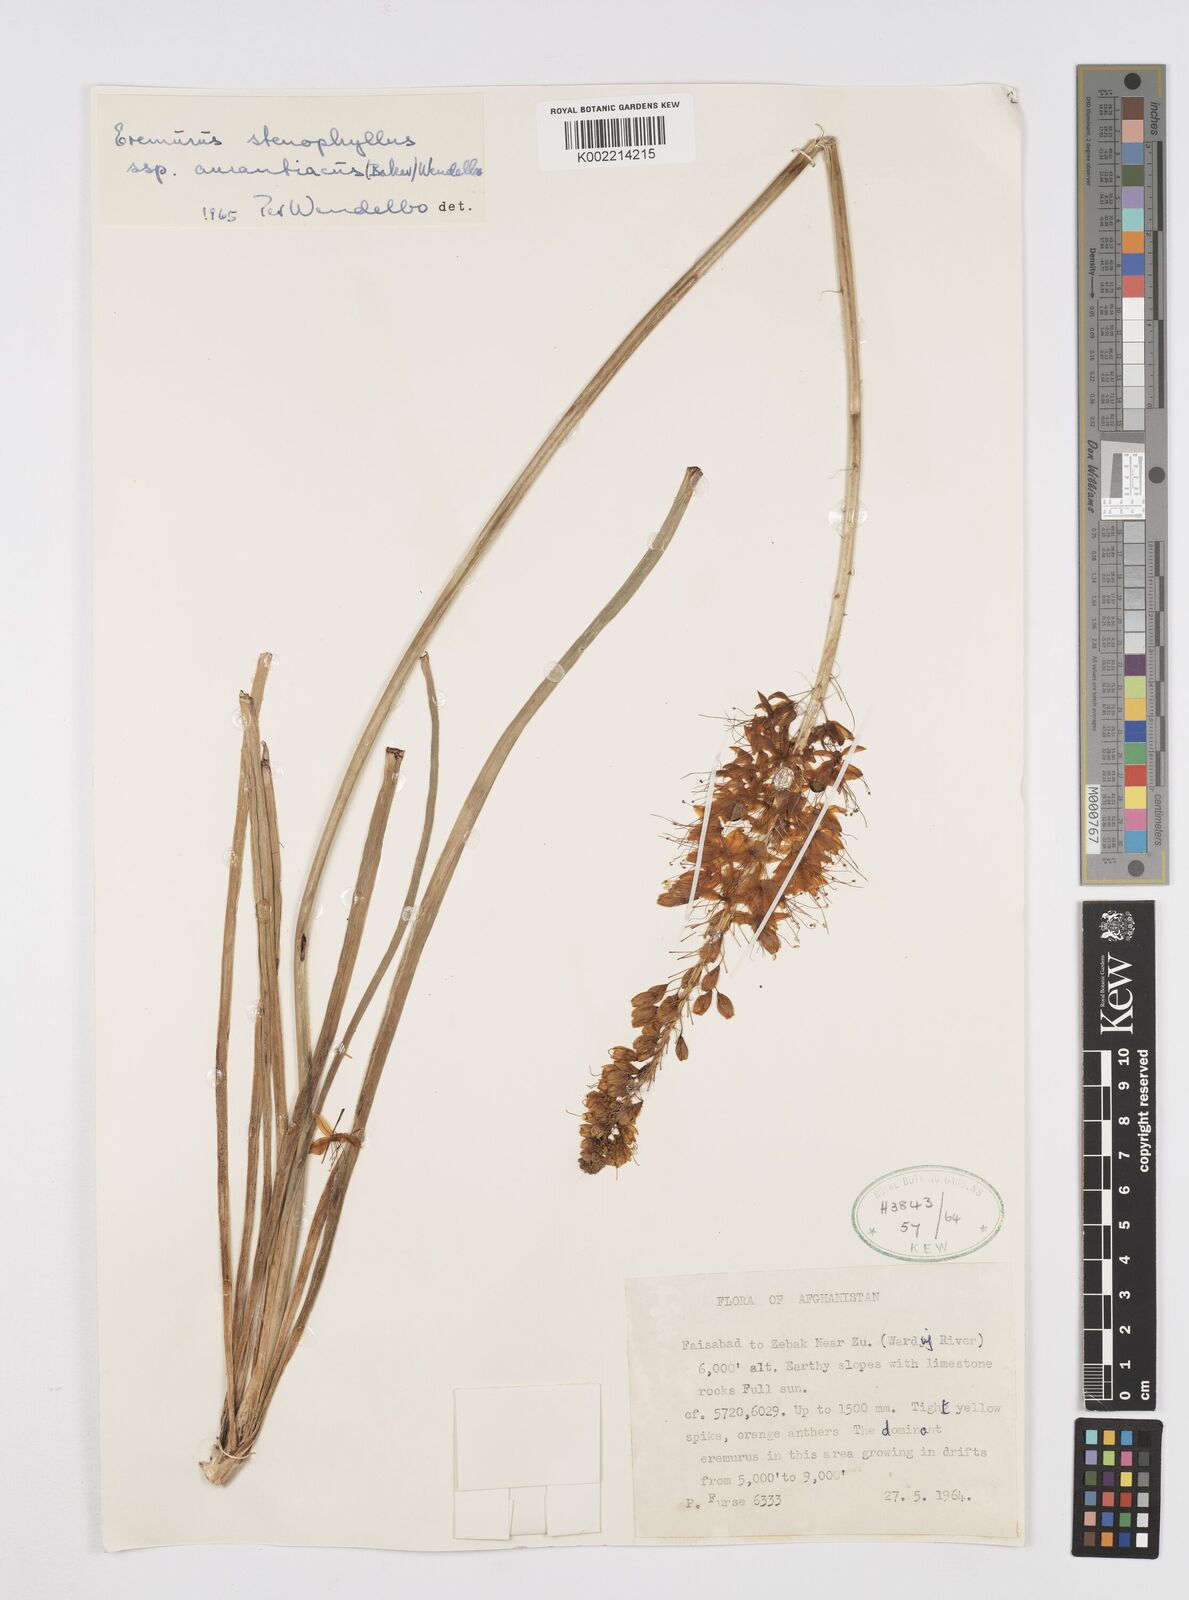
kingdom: Plantae
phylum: Tracheophyta
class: Liliopsida
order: Asparagales
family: Asphodelaceae
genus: Eremurus
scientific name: Eremurus stenophyllus
